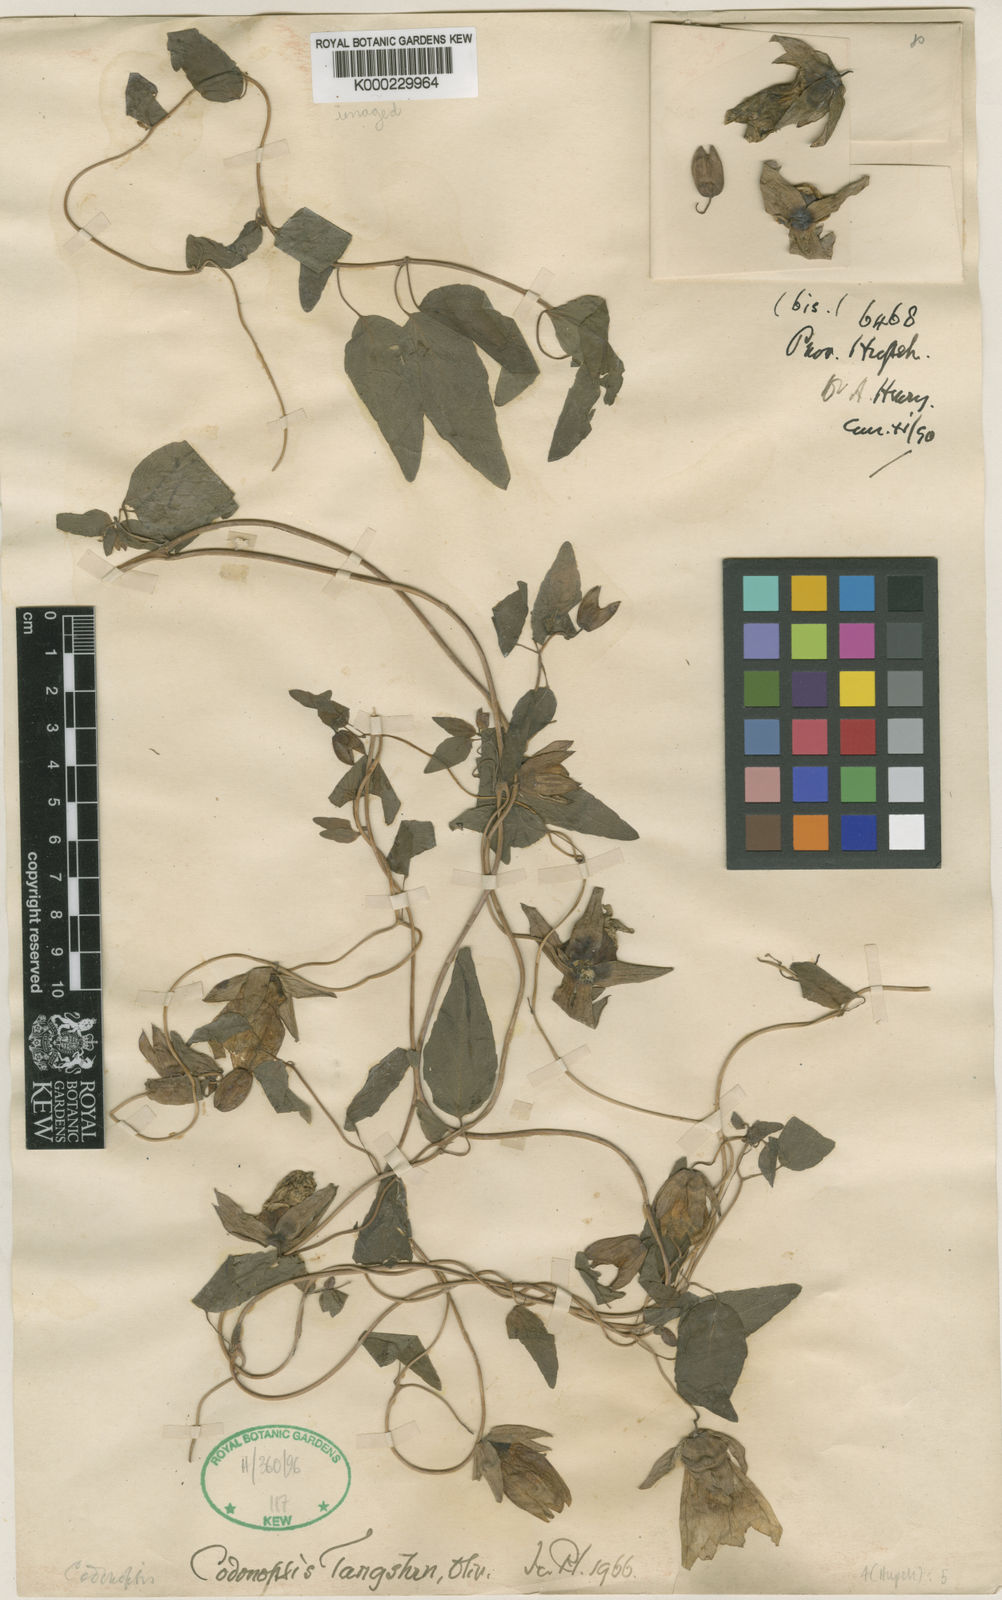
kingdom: Plantae
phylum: Tracheophyta
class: Magnoliopsida
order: Asterales
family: Campanulaceae
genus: Codonopsis
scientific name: Codonopsis pilosula
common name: Bellflower
